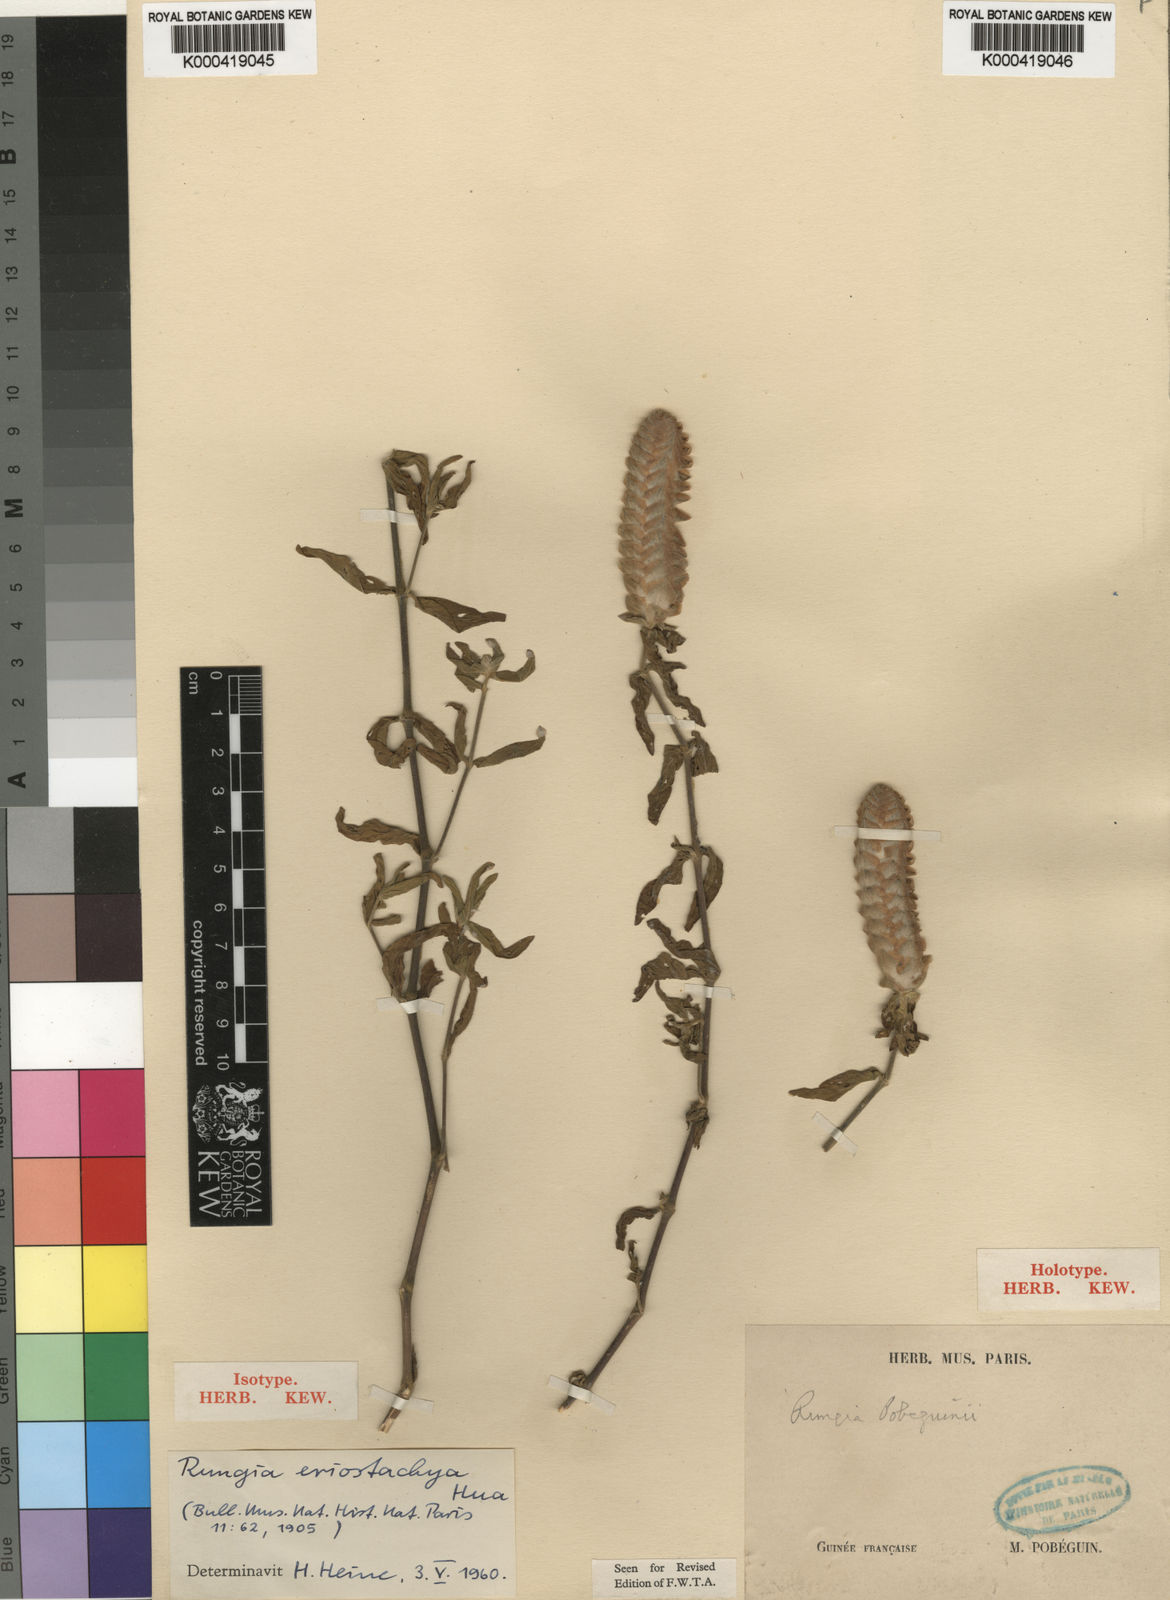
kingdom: Plantae
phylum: Tracheophyta
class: Magnoliopsida
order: Lamiales
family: Acanthaceae
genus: Justicia
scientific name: Justicia
